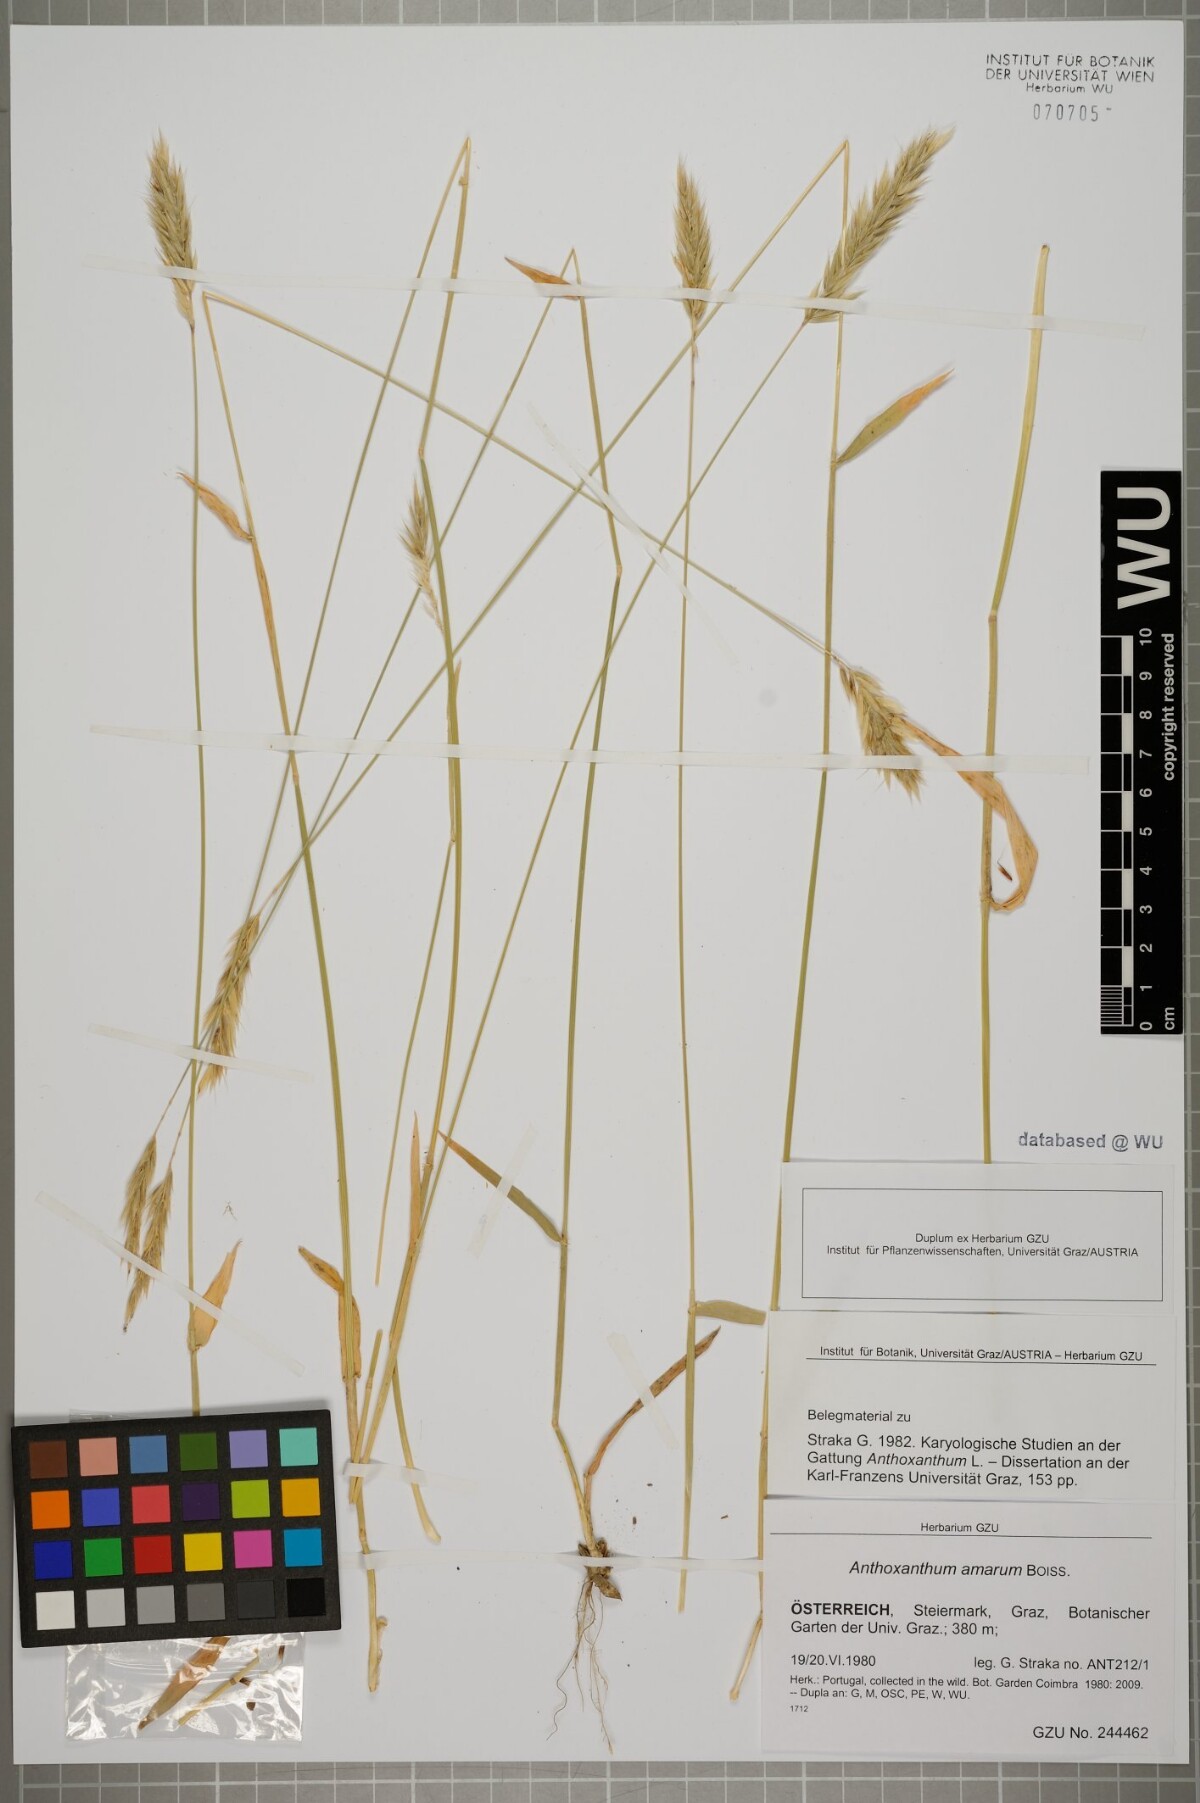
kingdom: Plantae
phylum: Tracheophyta
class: Liliopsida
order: Poales
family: Poaceae
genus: Anthoxanthum
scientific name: Anthoxanthum amarum
